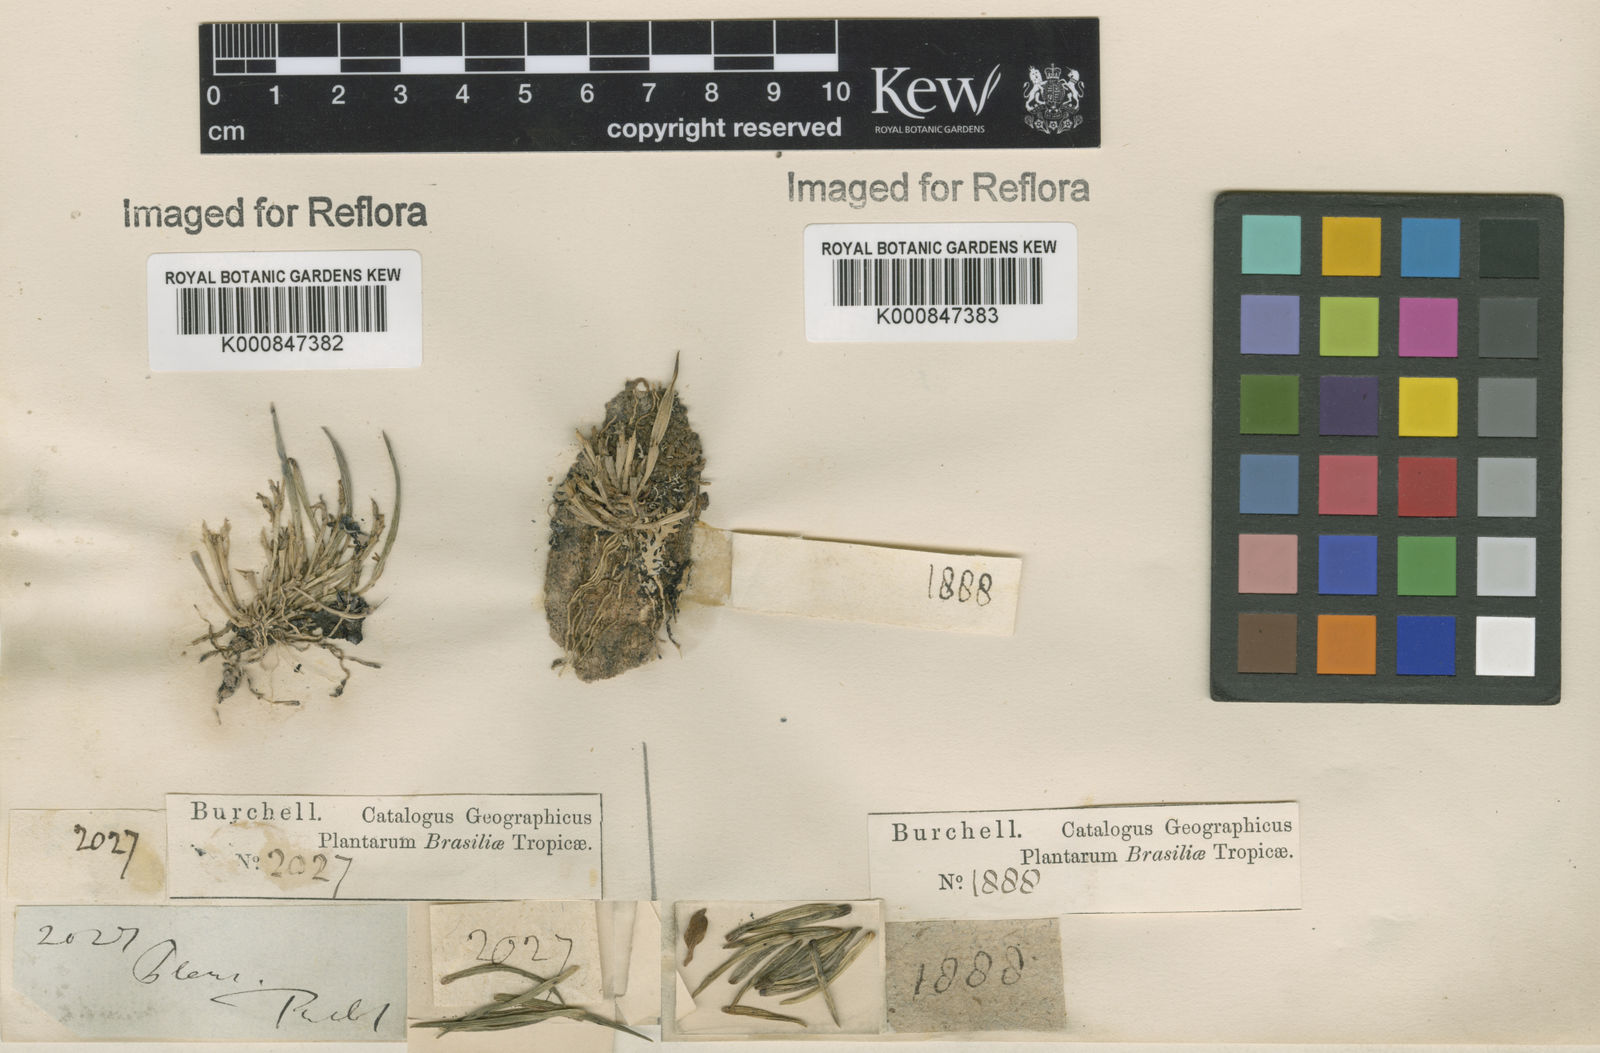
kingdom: Plantae
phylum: Tracheophyta
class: Liliopsida
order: Asparagales
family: Orchidaceae
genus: Pleurothallis
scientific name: Pleurothallis
